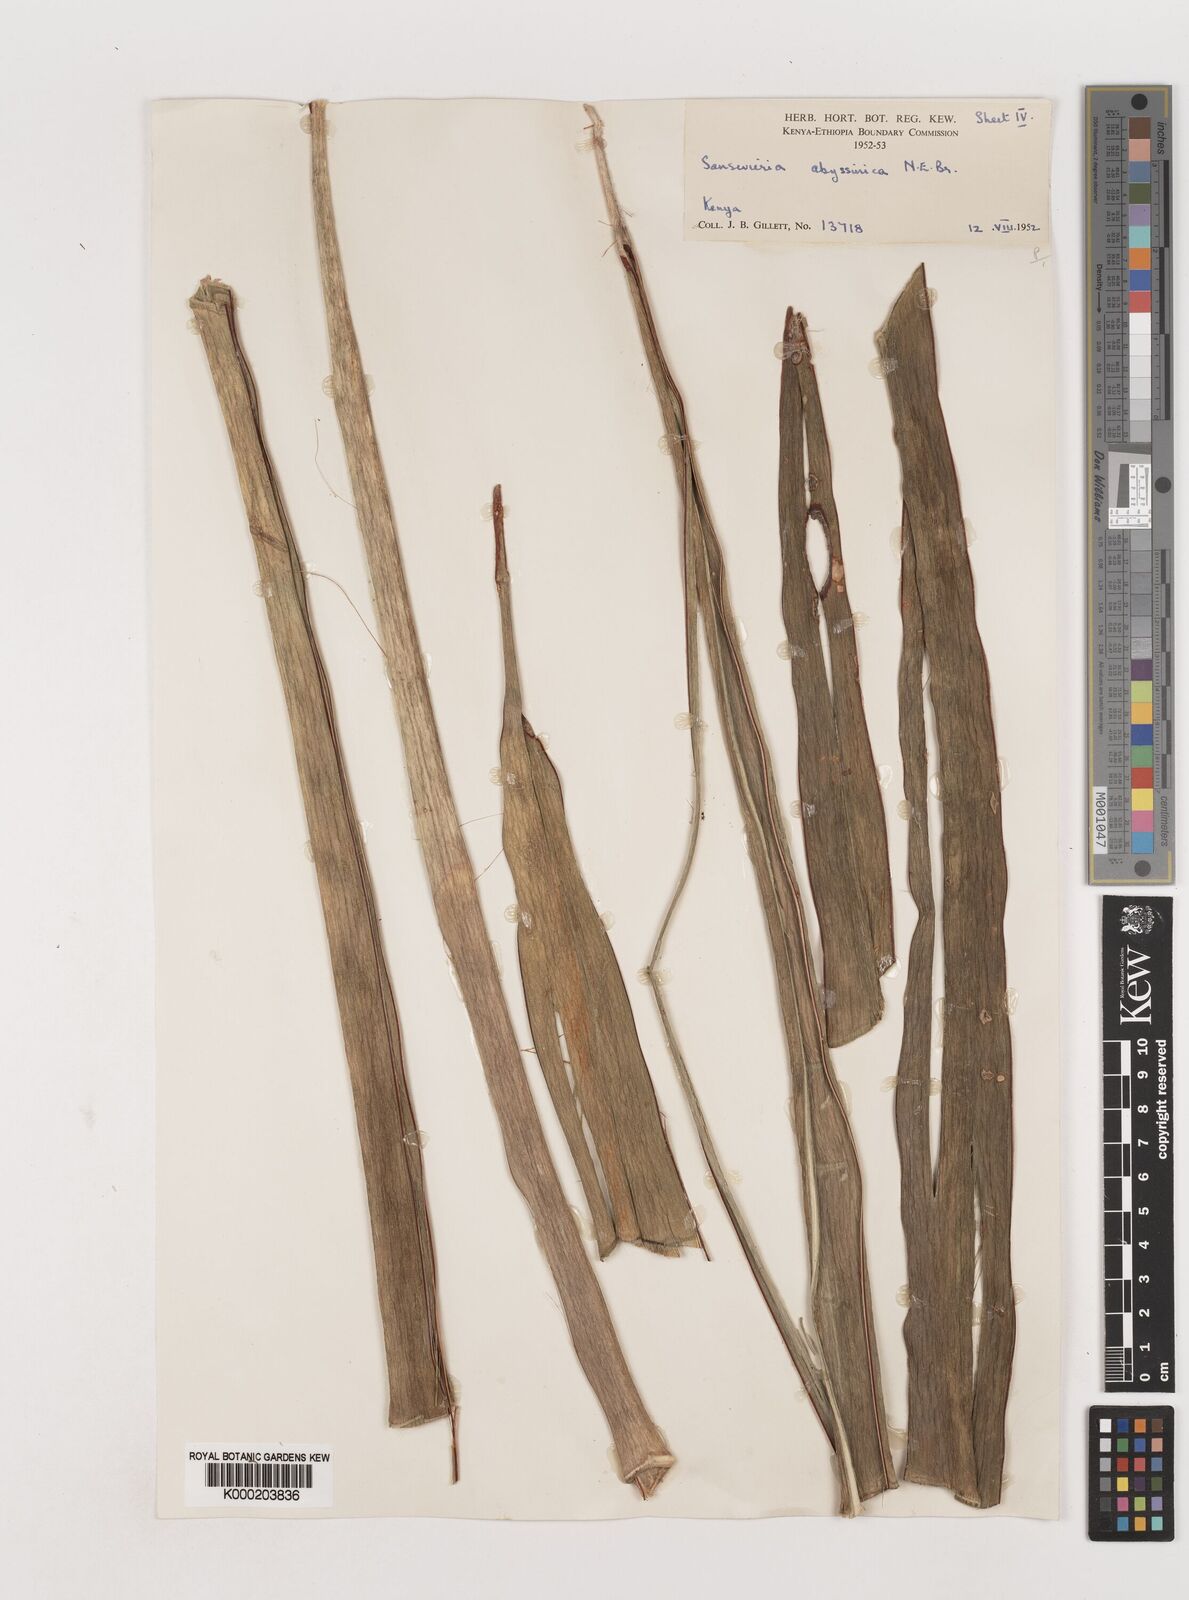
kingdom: Plantae
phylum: Tracheophyta
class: Liliopsida
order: Asparagales
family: Asparagaceae
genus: Dracaena
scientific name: Dracaena forskaliana
